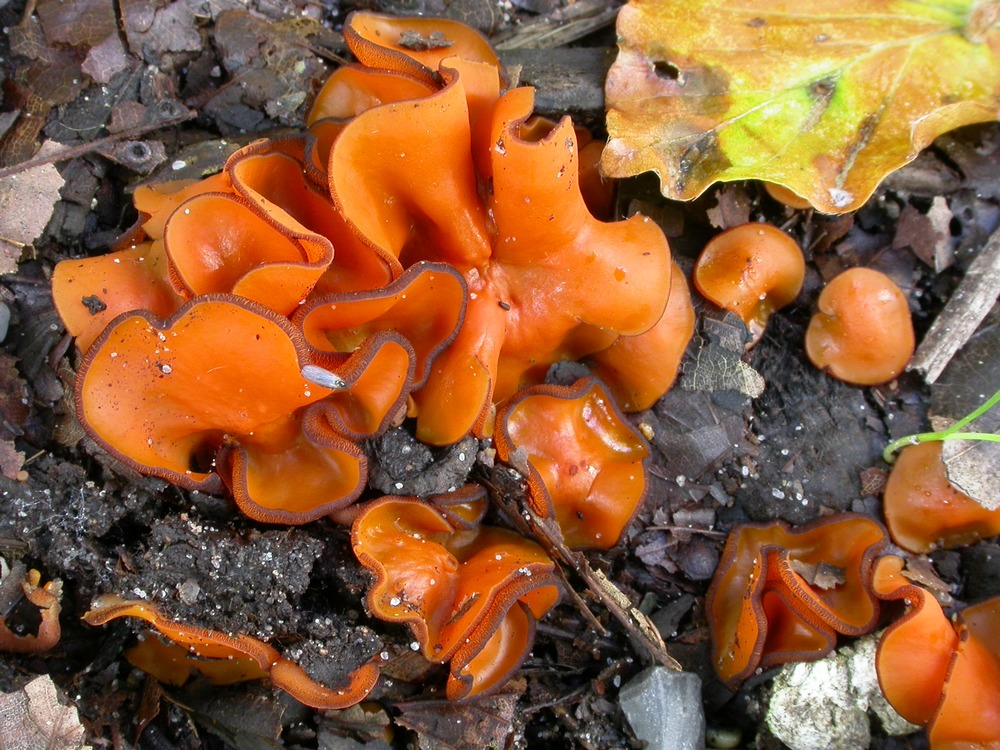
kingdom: Fungi
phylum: Ascomycota
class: Pezizomycetes
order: Pezizales
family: Pyronemataceae
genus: Melastiza
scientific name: Melastiza cornubiensis
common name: mørkrandet rødbæger
